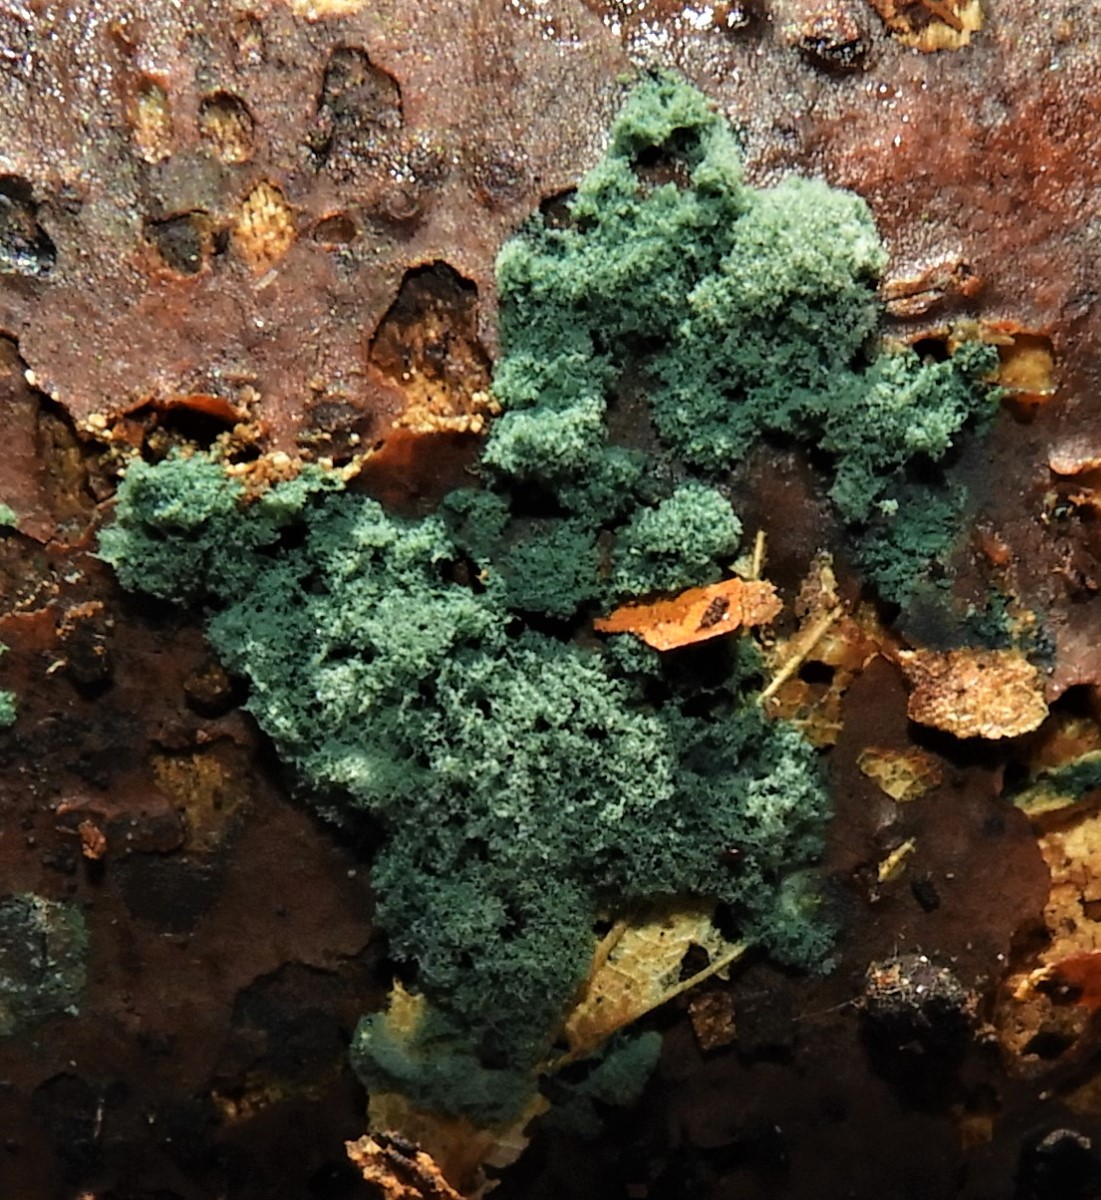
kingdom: Fungi
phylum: Ascomycota
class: Sordariomycetes
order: Hypocreales
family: Hypocreaceae
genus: Trichoderma
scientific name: Trichoderma
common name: kødkerne
